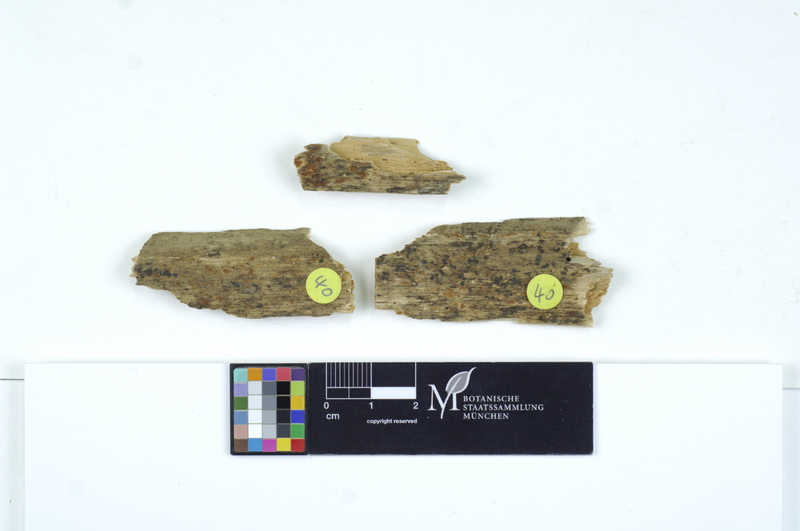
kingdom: Plantae
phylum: Tracheophyta
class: Magnoliopsida
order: Malpighiales
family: Salicaceae
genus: Populus
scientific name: Populus
